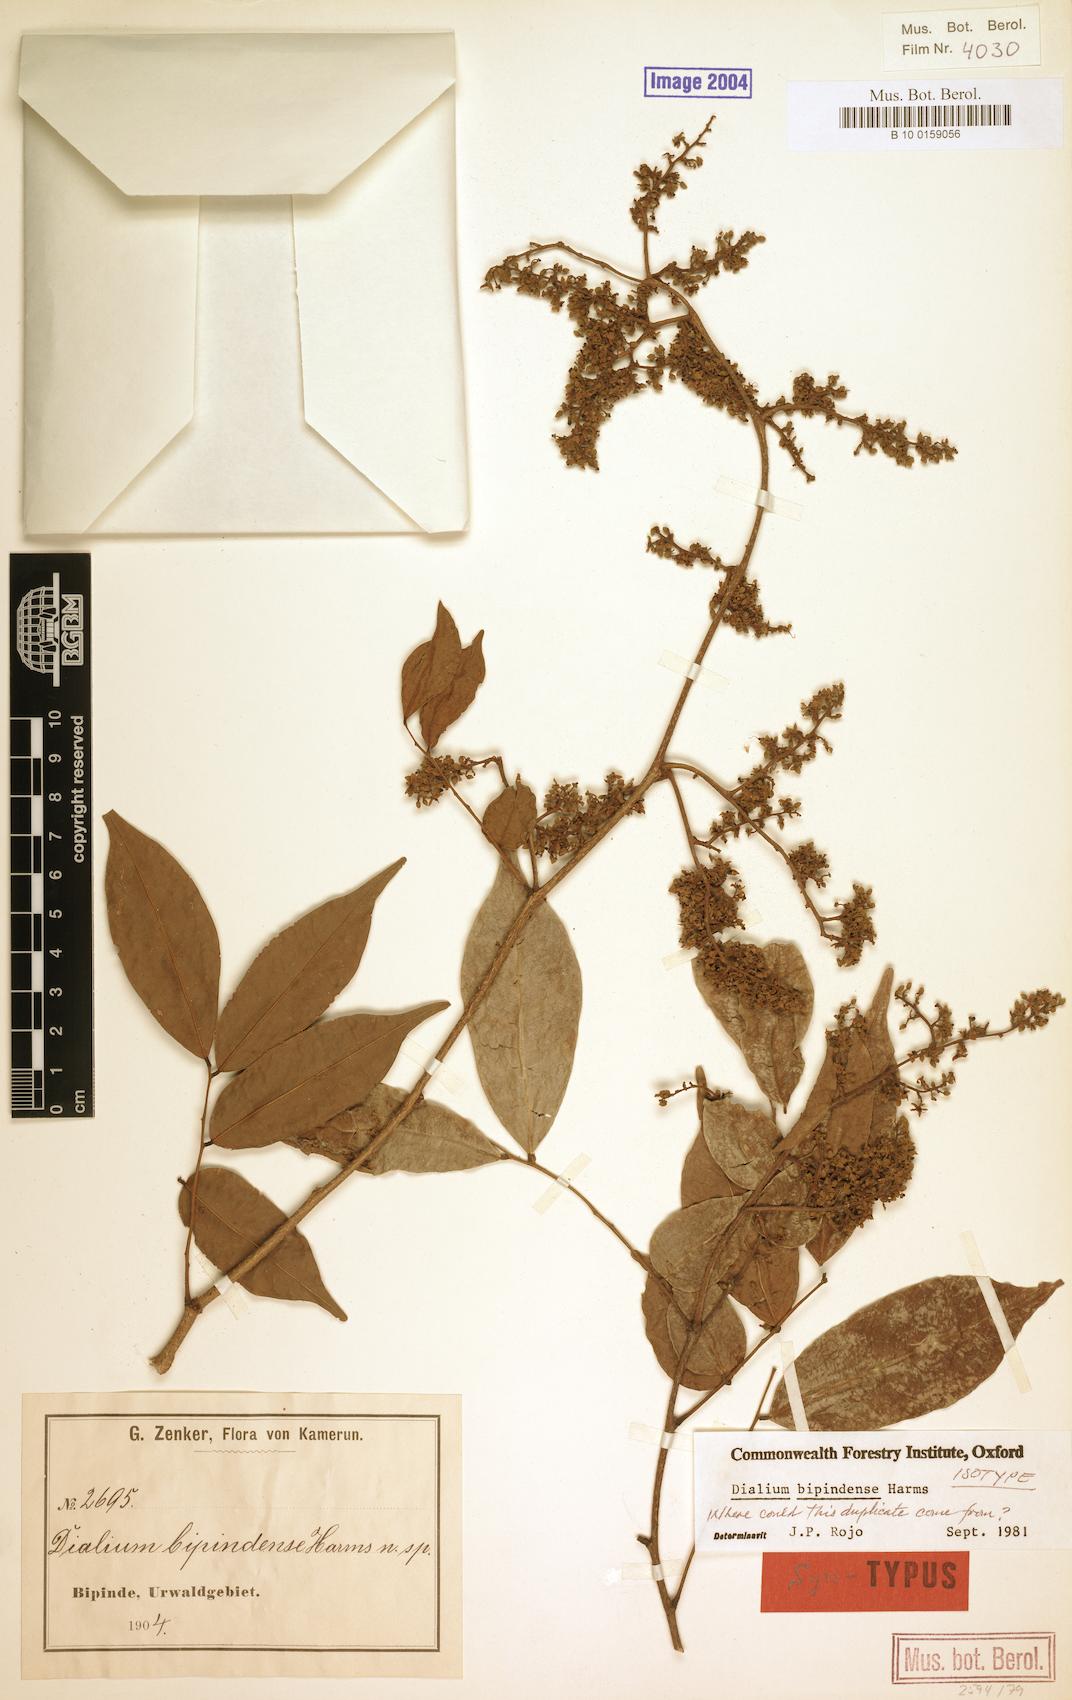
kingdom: Plantae
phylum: Tracheophyta
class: Magnoliopsida
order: Fabales
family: Fabaceae
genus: Dialium
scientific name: Dialium bipindense
